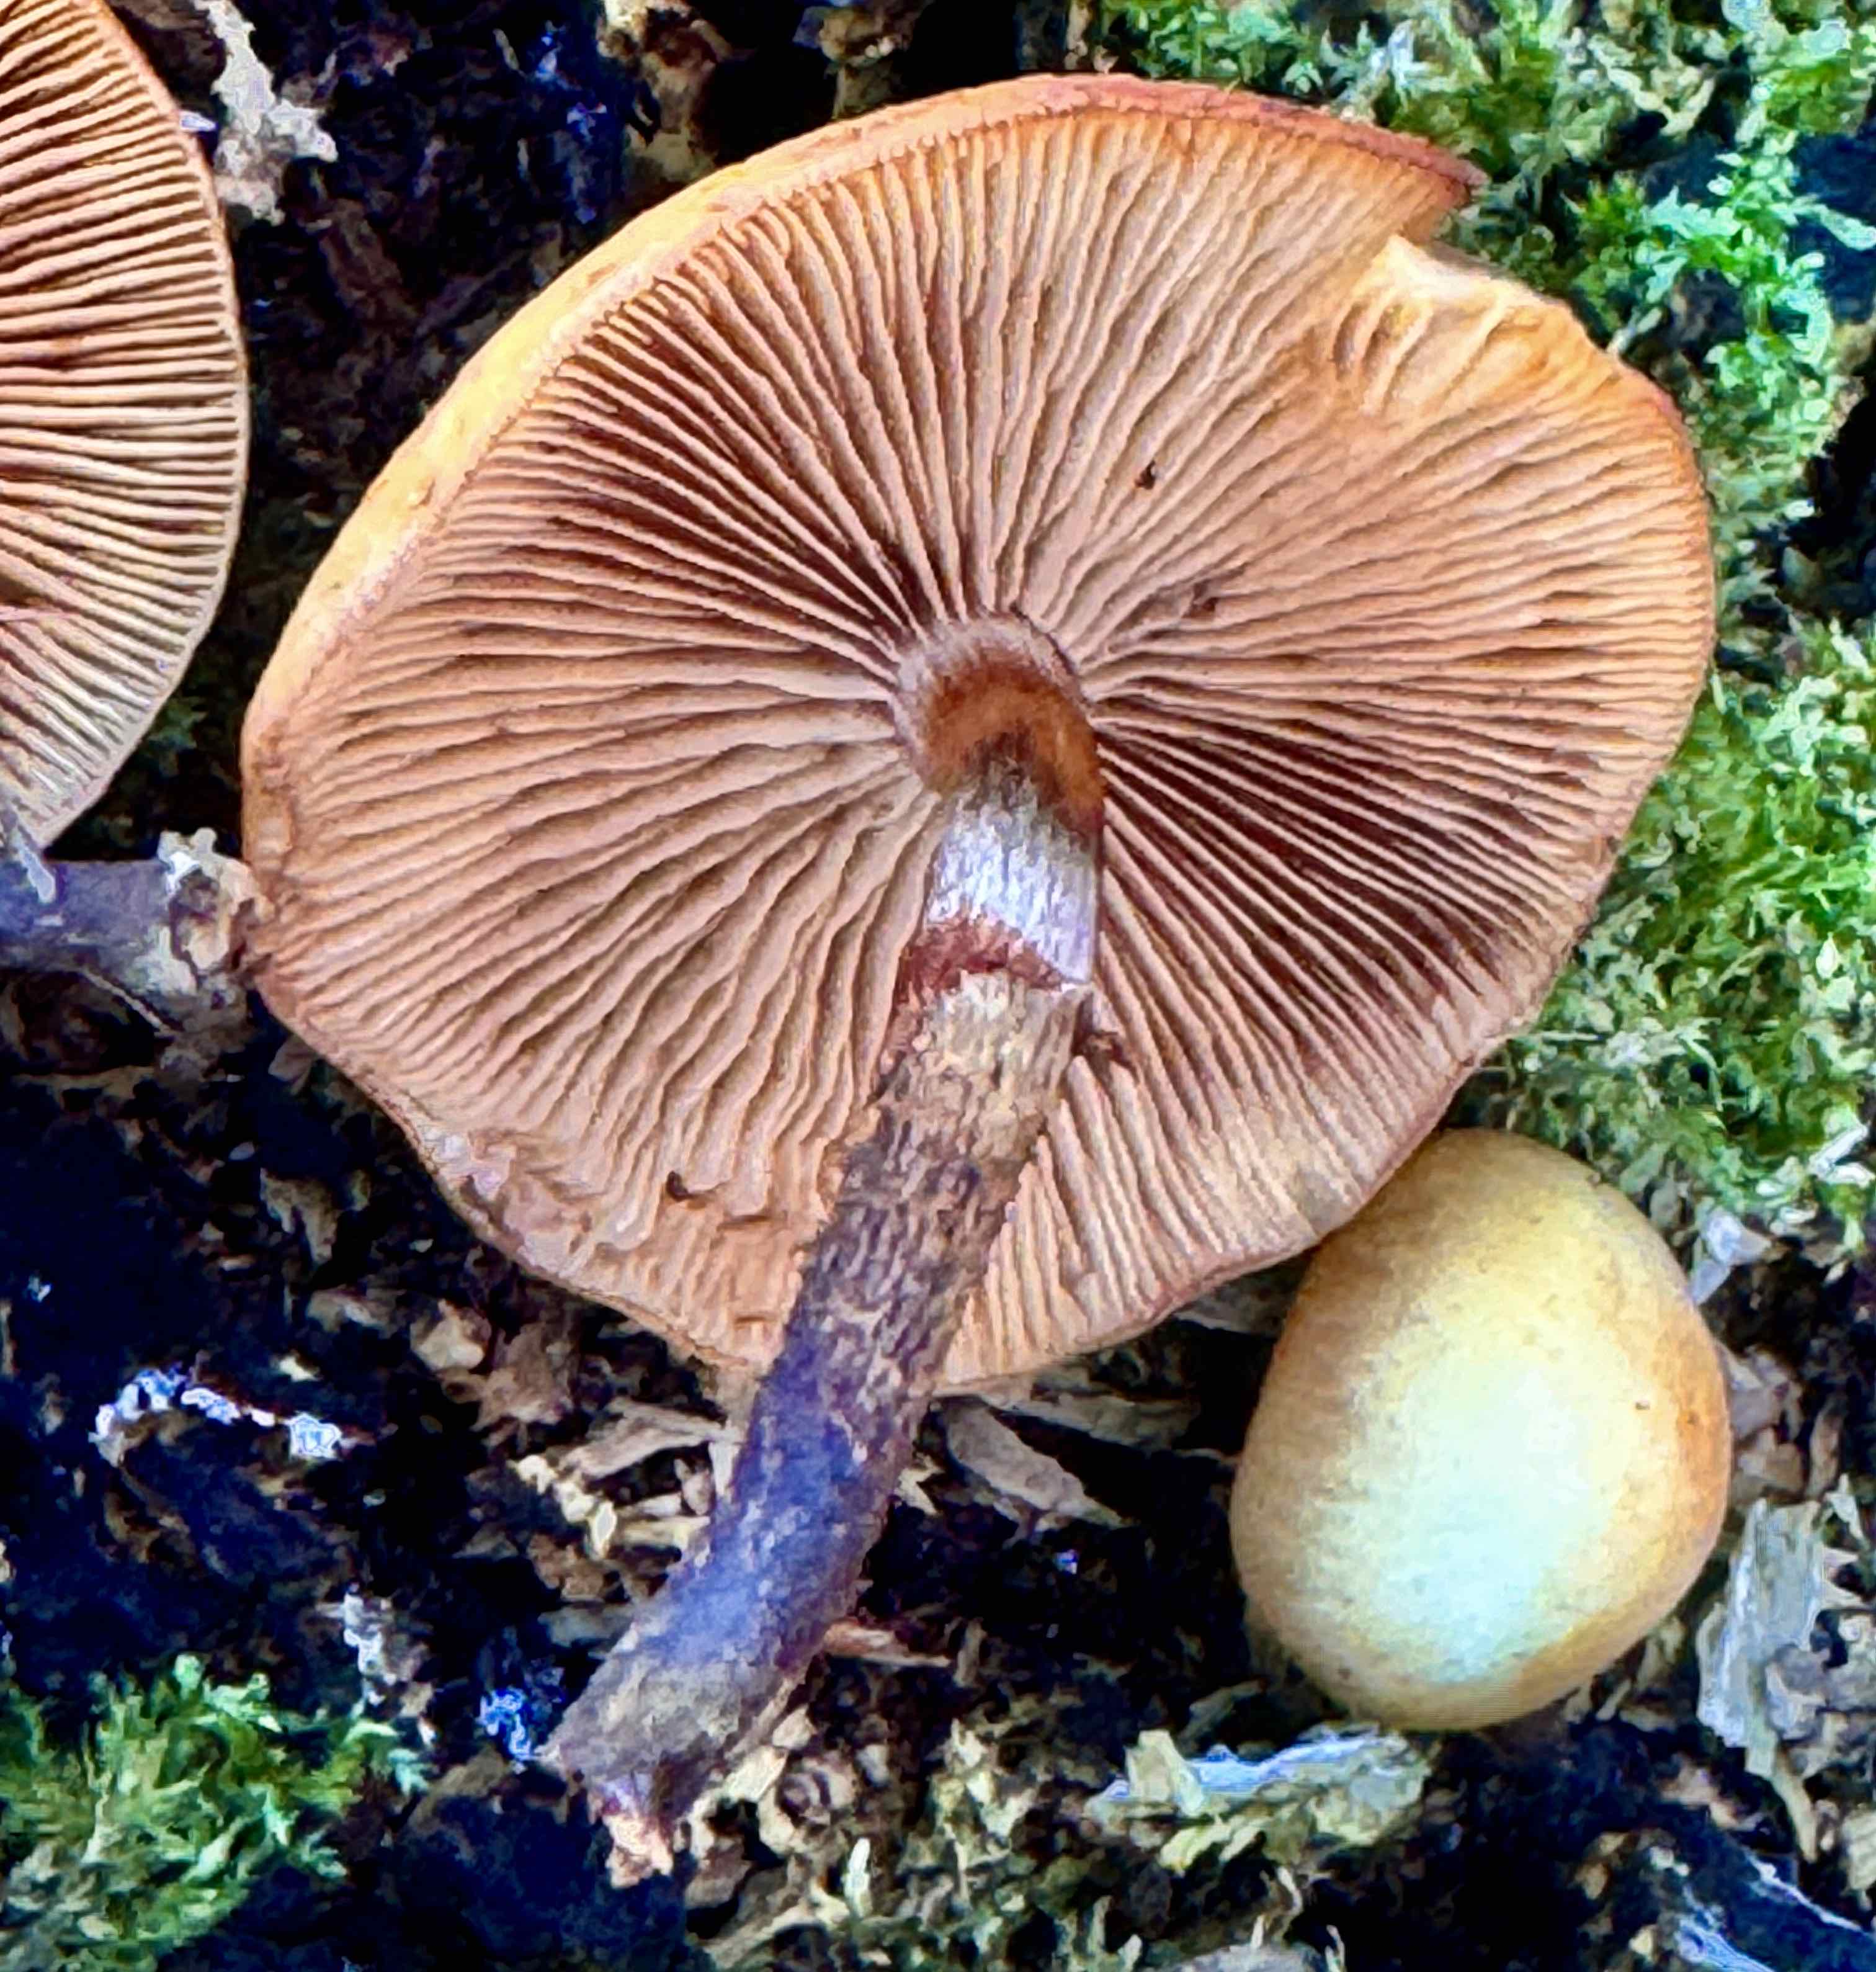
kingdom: Fungi
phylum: Basidiomycota
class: Agaricomycetes
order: Agaricales
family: Strophariaceae
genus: Kuehneromyces
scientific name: Kuehneromyces mutabilis
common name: foranderlig skælhat
